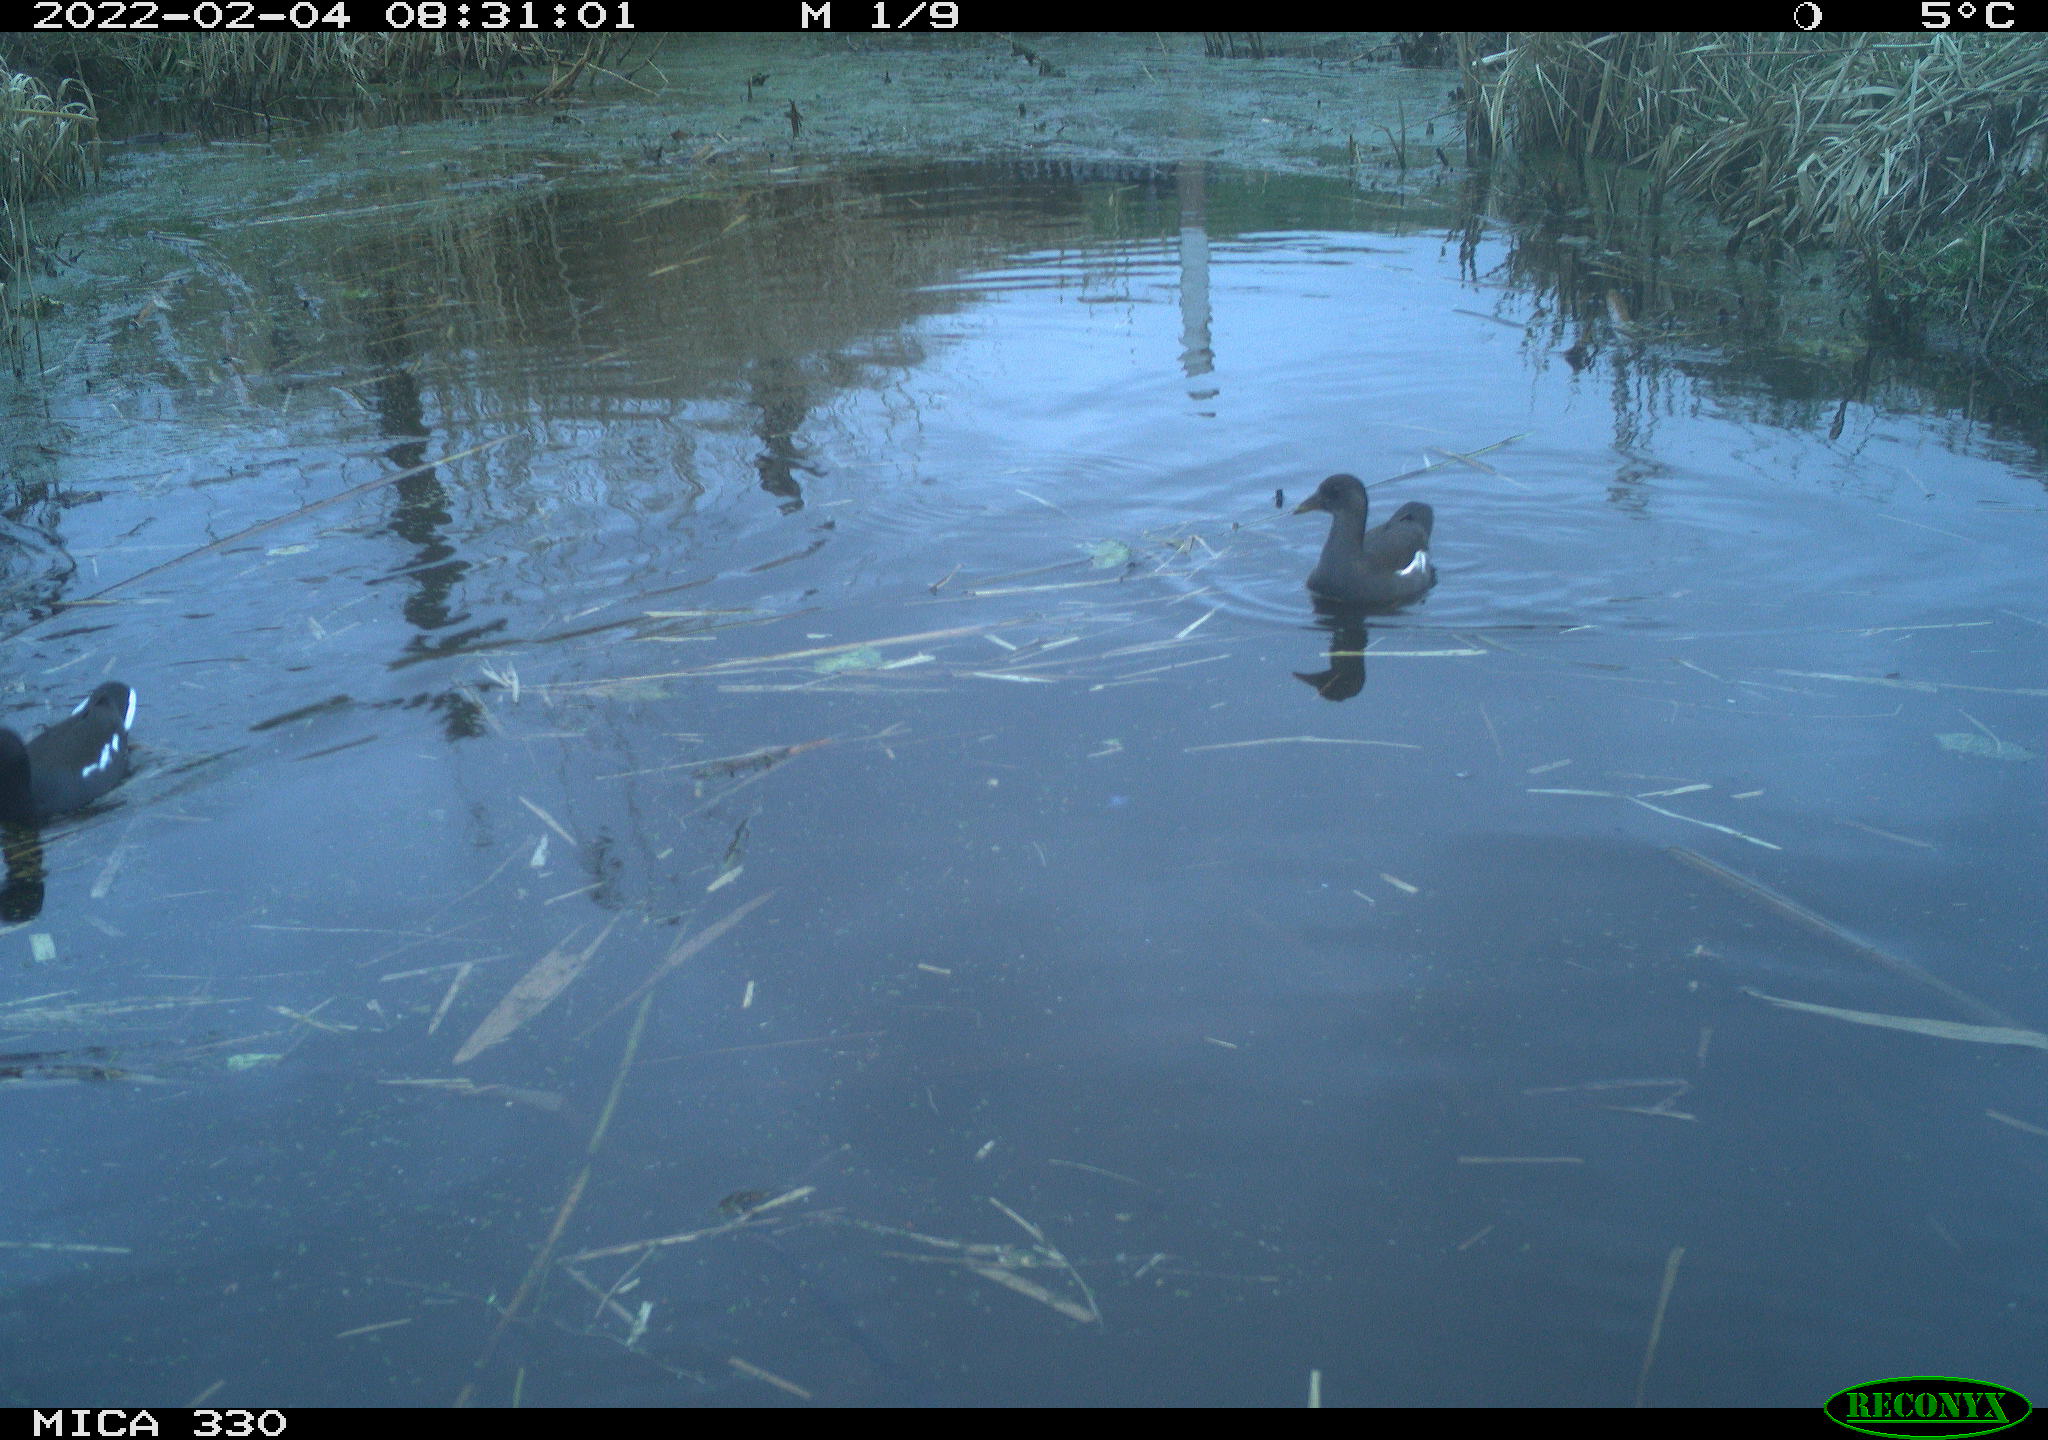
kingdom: Animalia
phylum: Chordata
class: Aves
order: Gruiformes
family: Rallidae
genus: Gallinula
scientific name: Gallinula chloropus
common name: Common moorhen
